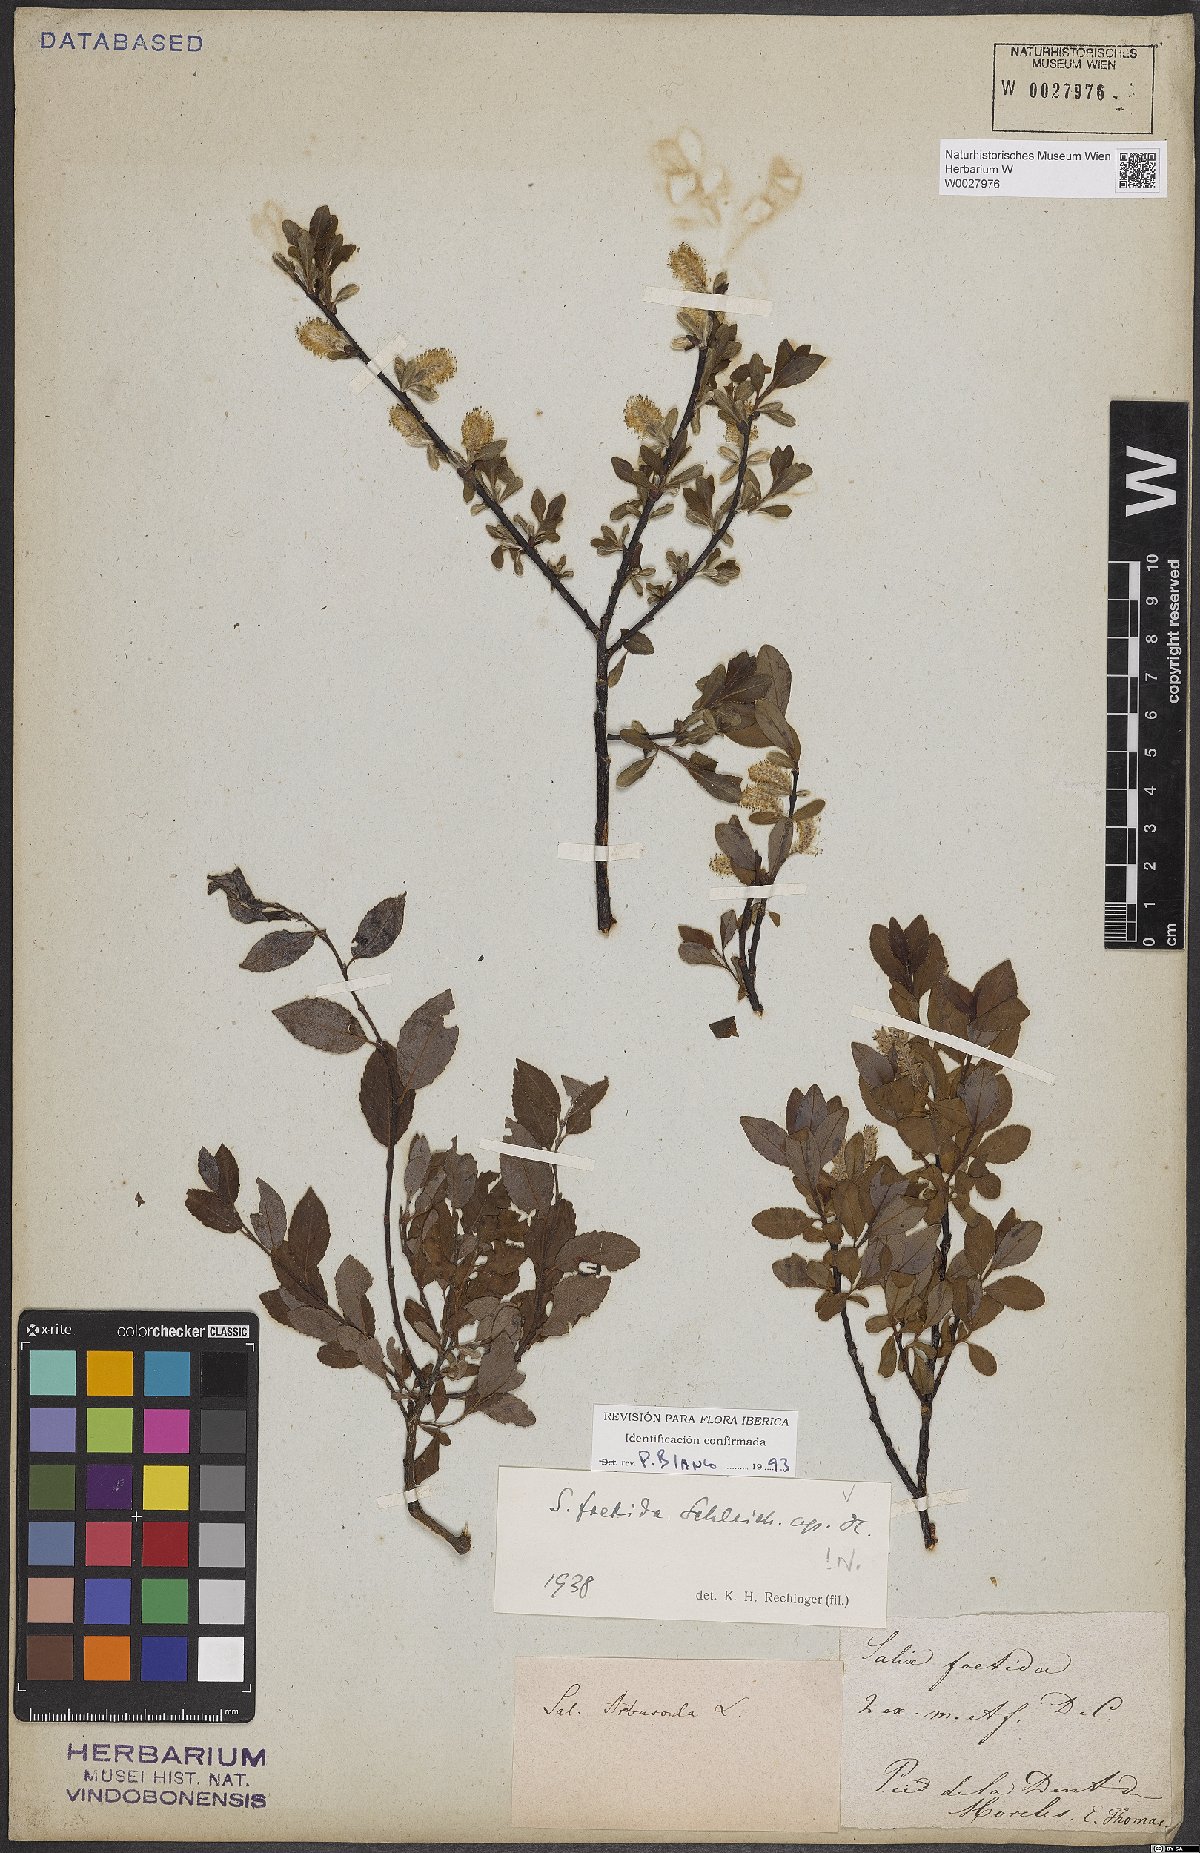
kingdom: Plantae
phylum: Tracheophyta
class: Magnoliopsida
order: Malpighiales
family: Salicaceae
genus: Salix
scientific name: Salix foetida
